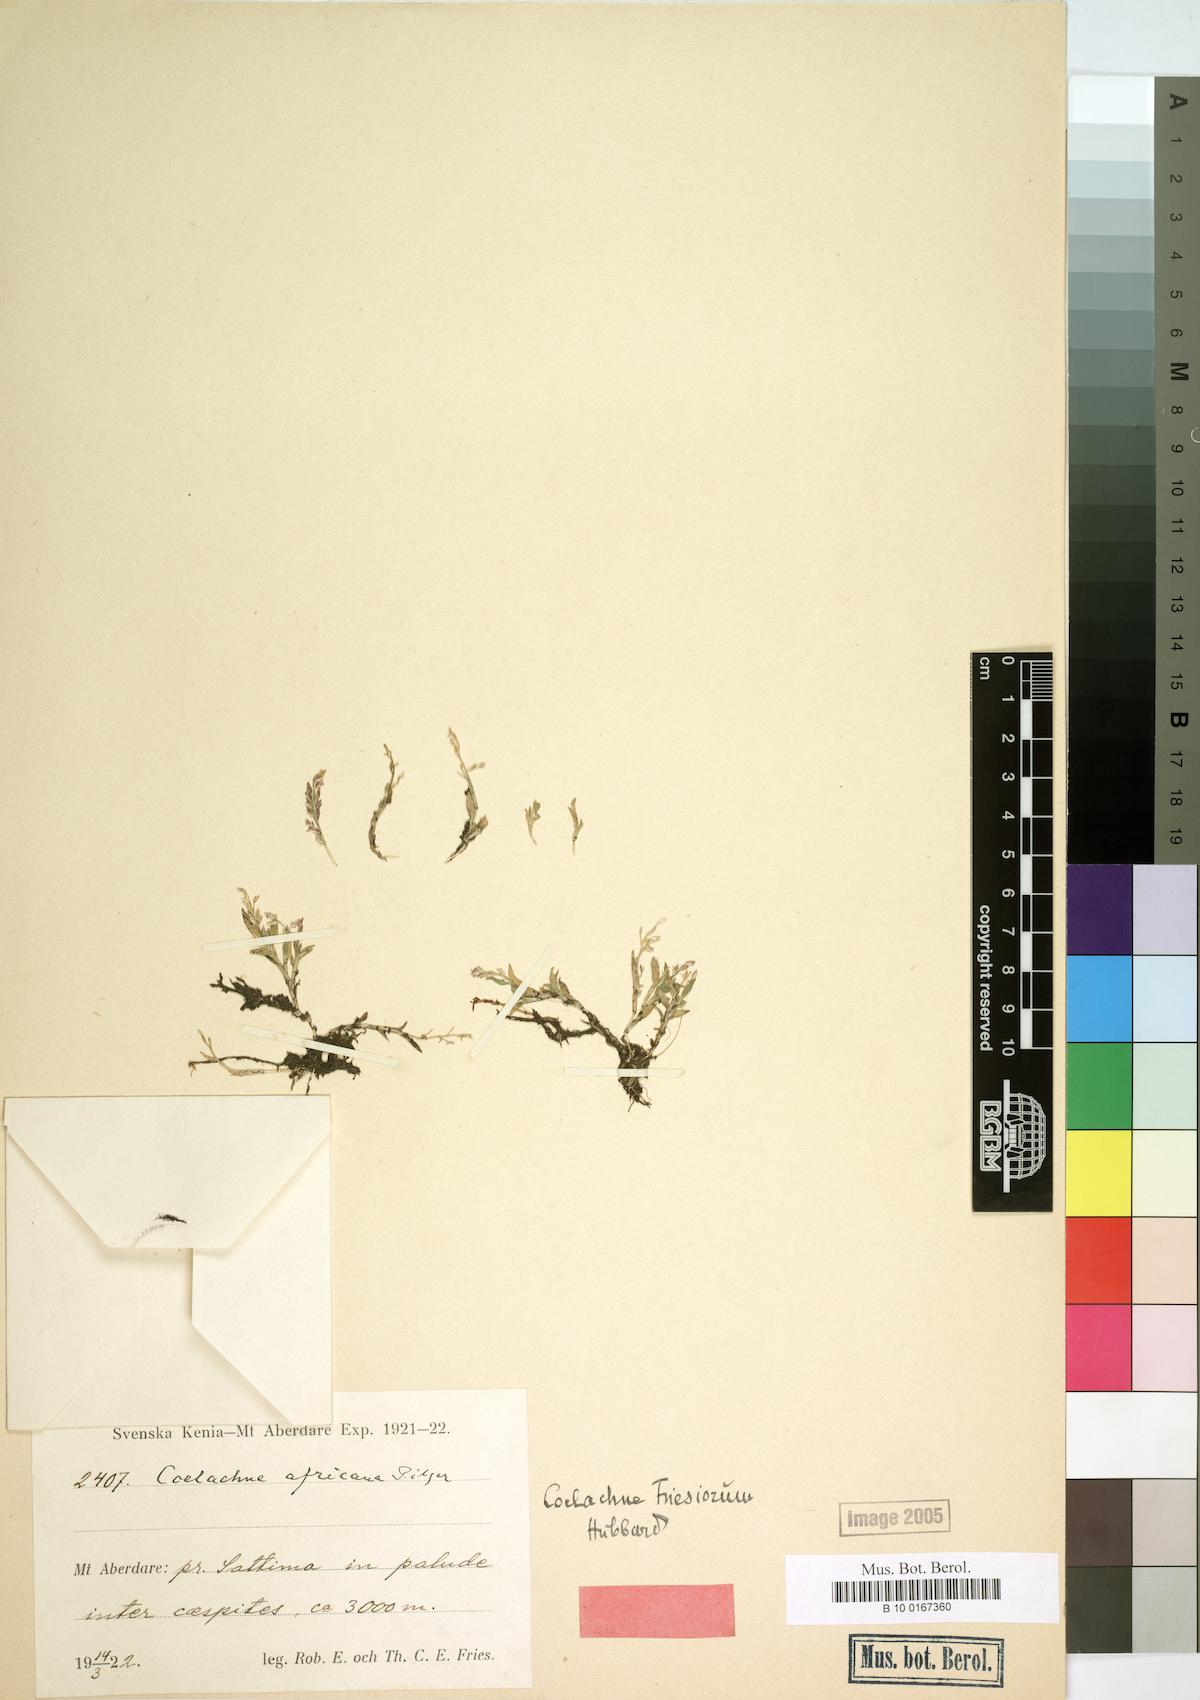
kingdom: Plantae
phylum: Tracheophyta
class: Liliopsida
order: Poales
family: Poaceae
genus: Coelachne
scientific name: Coelachne friesiorum
